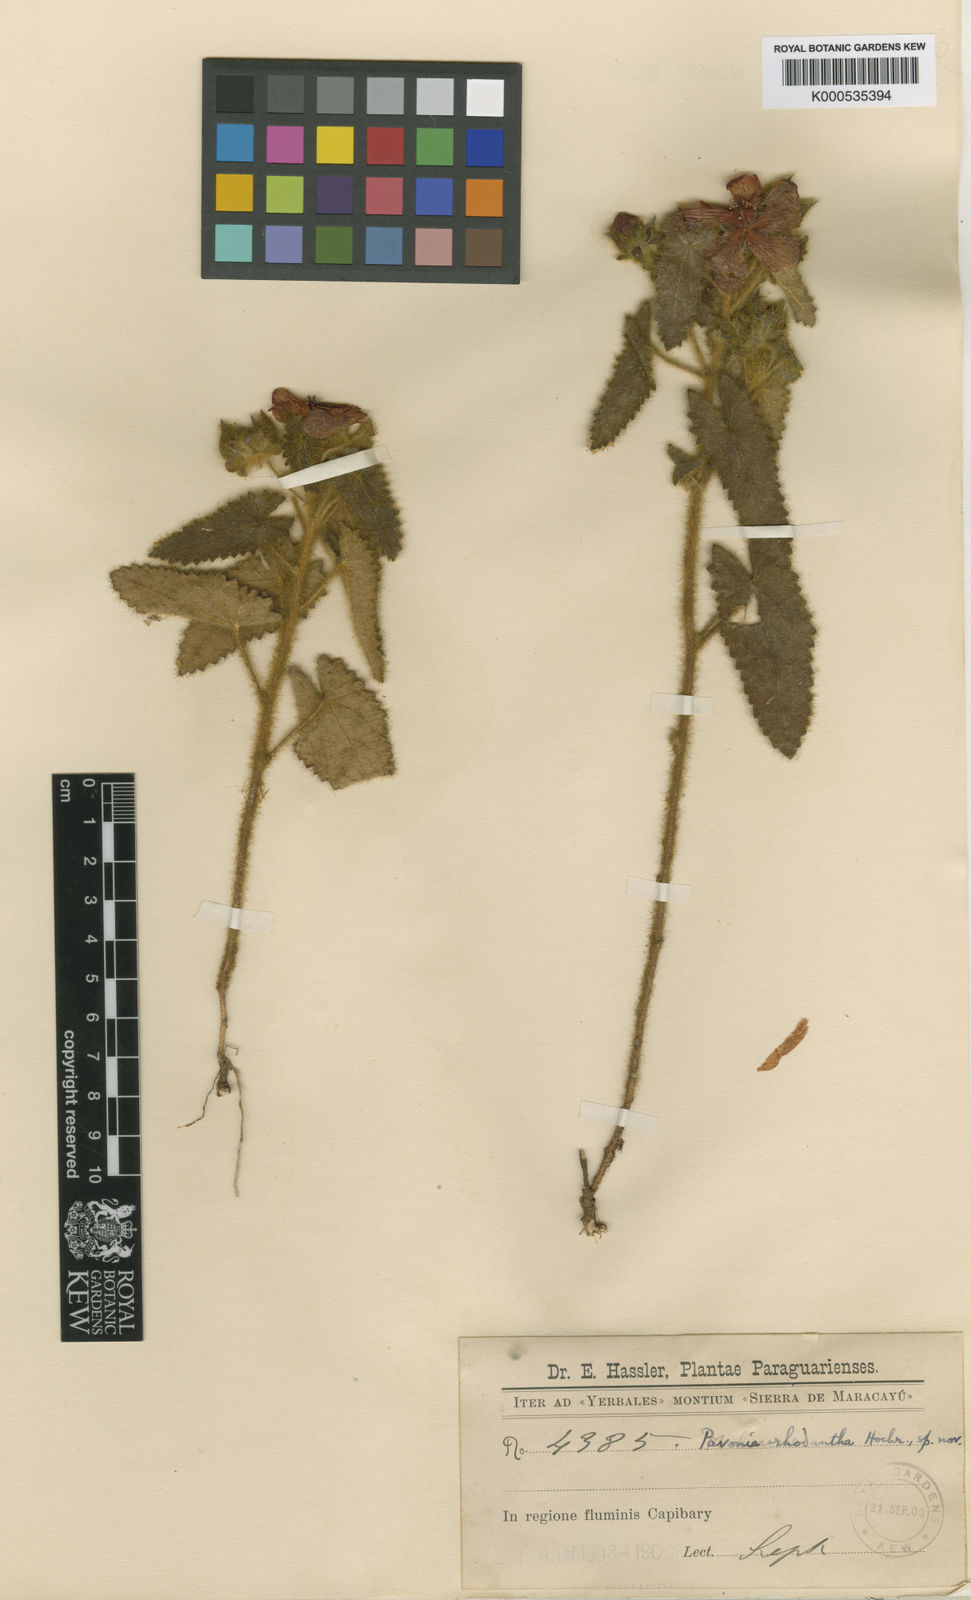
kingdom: Plantae
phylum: Tracheophyta
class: Magnoliopsida
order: Malvales
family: Malvaceae
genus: Pavonia
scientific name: Pavonia rhodantha
